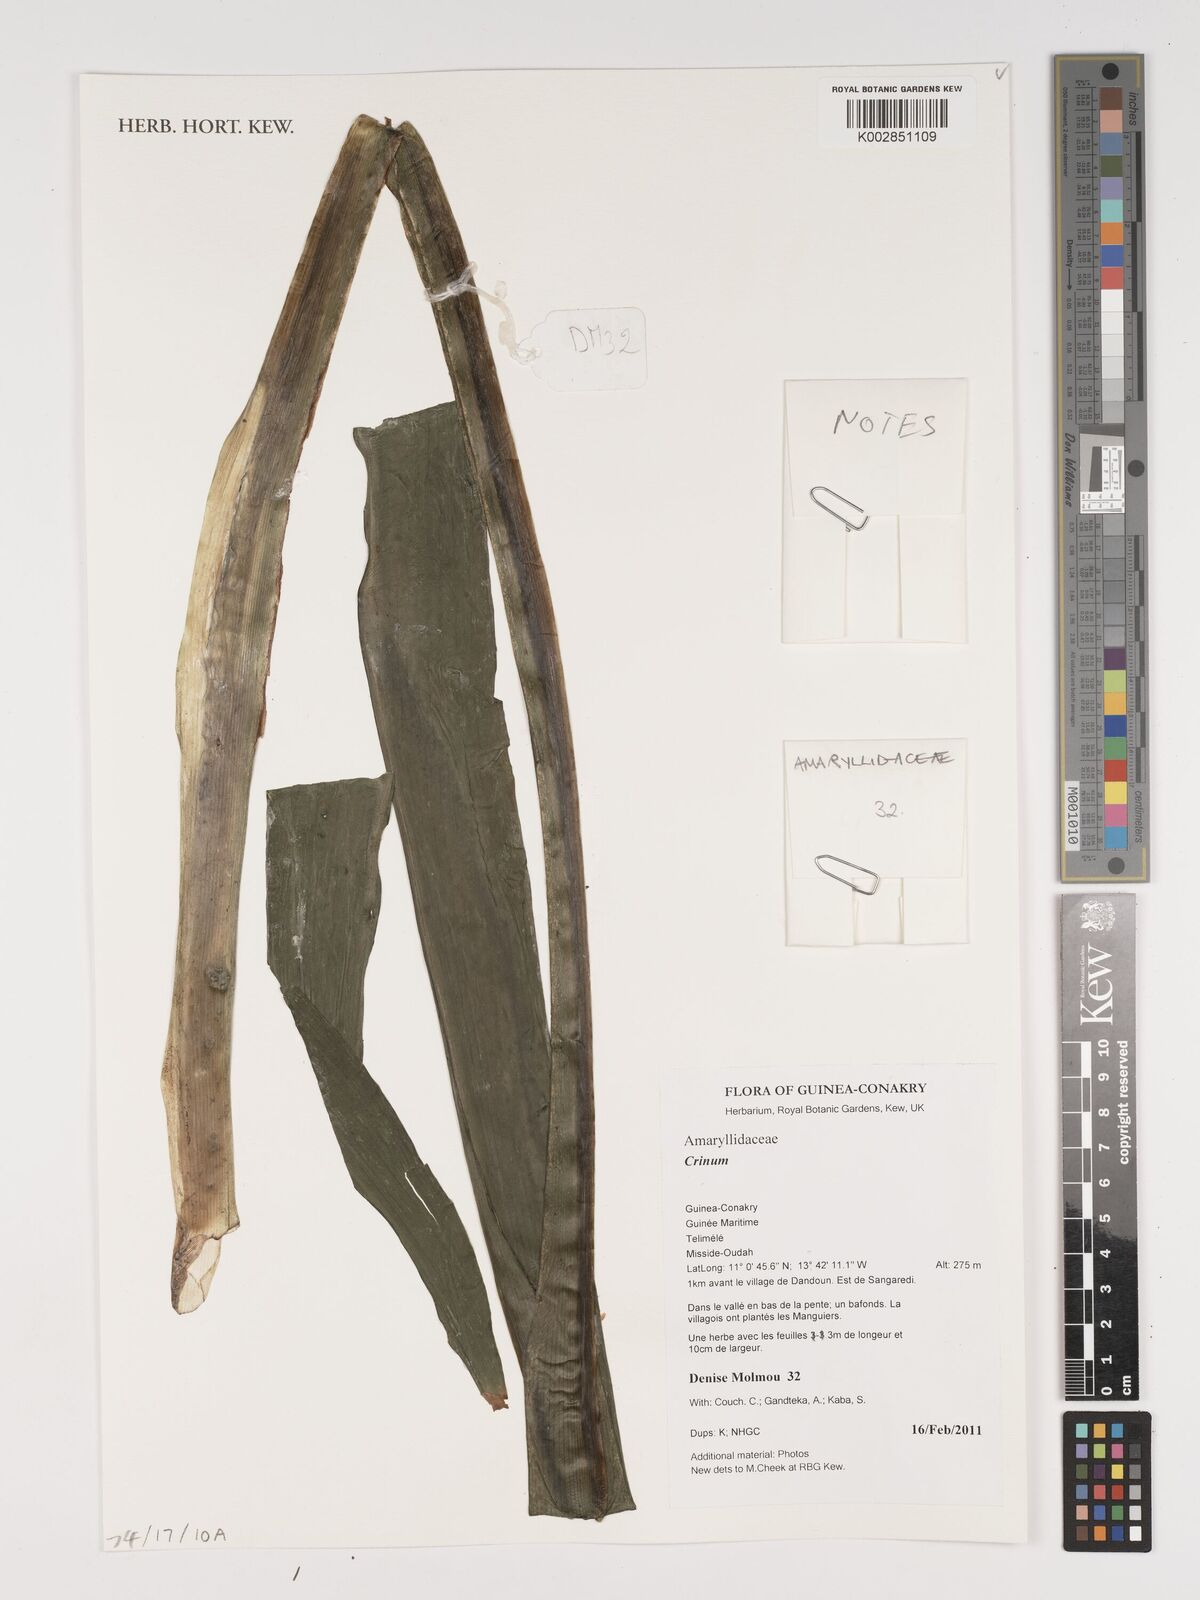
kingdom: Plantae
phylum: Tracheophyta
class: Liliopsida
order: Asparagales
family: Amaryllidaceae
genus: Crinum
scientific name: Crinum
